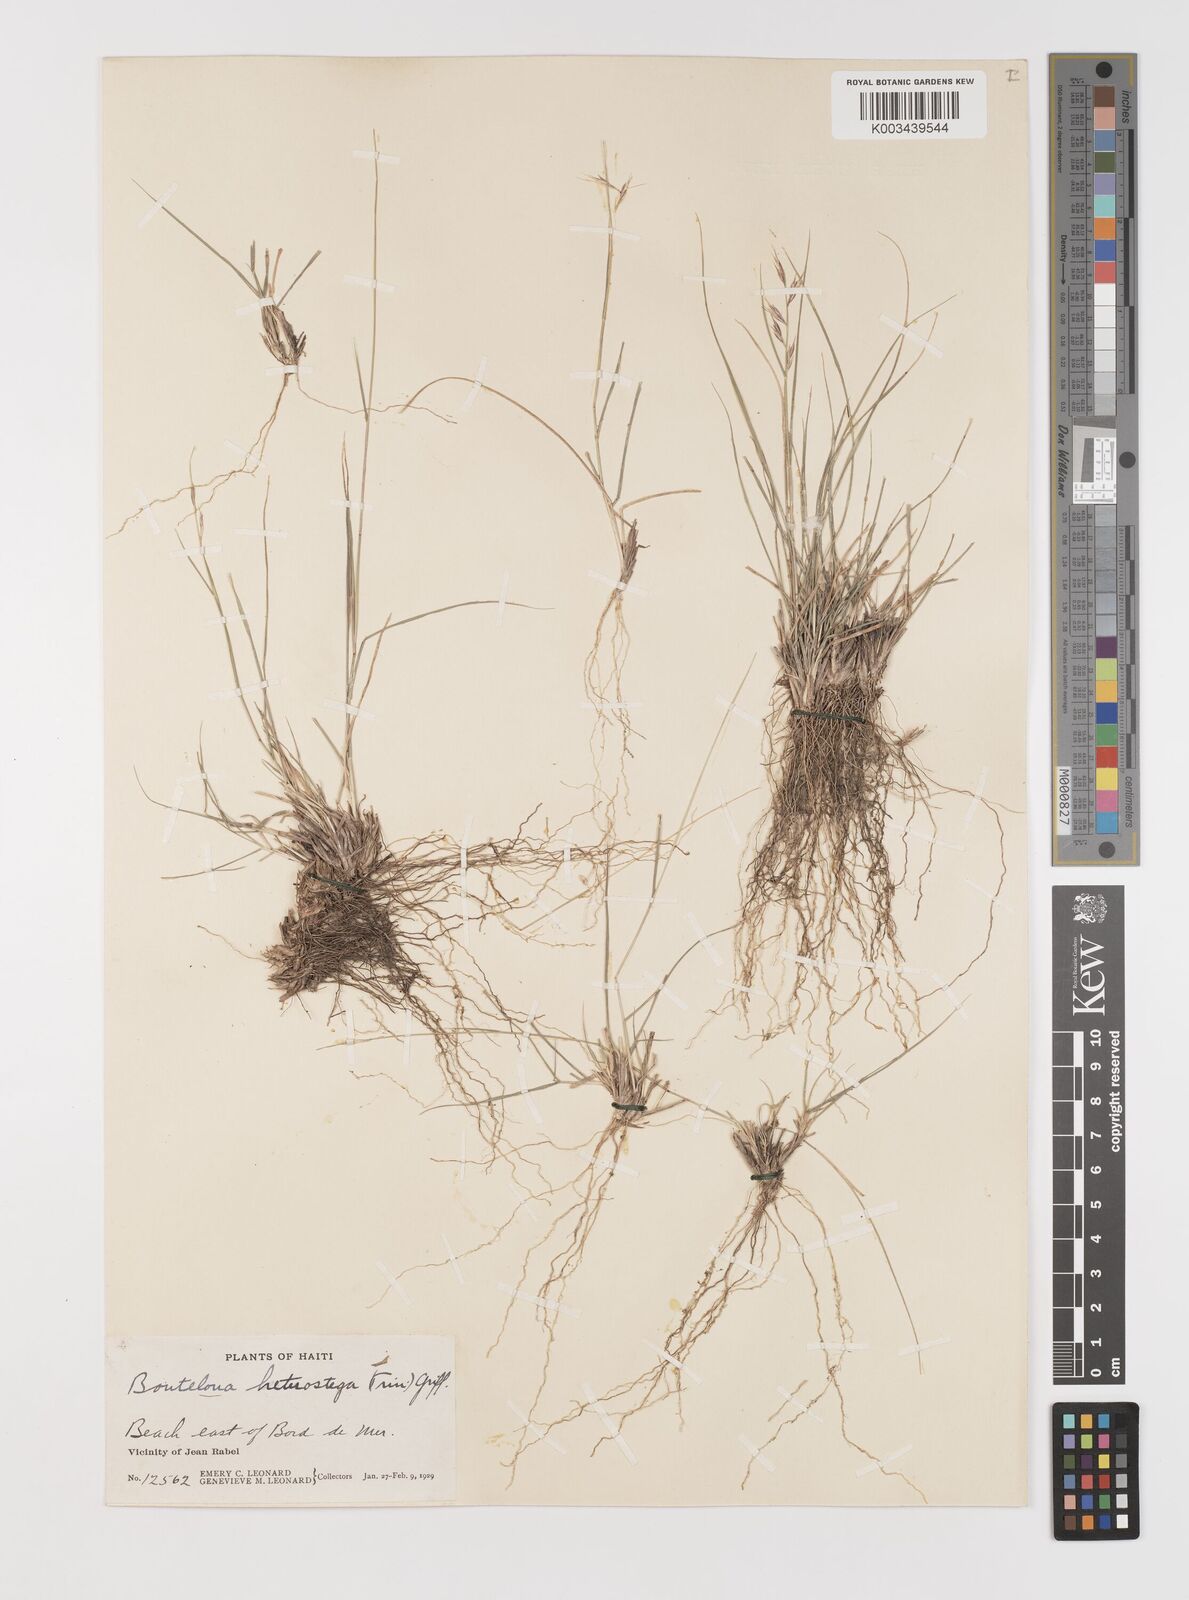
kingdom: Plantae
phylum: Tracheophyta
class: Liliopsida
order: Poales
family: Poaceae
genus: Bouteloua
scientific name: Bouteloua repens
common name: Slender grama
